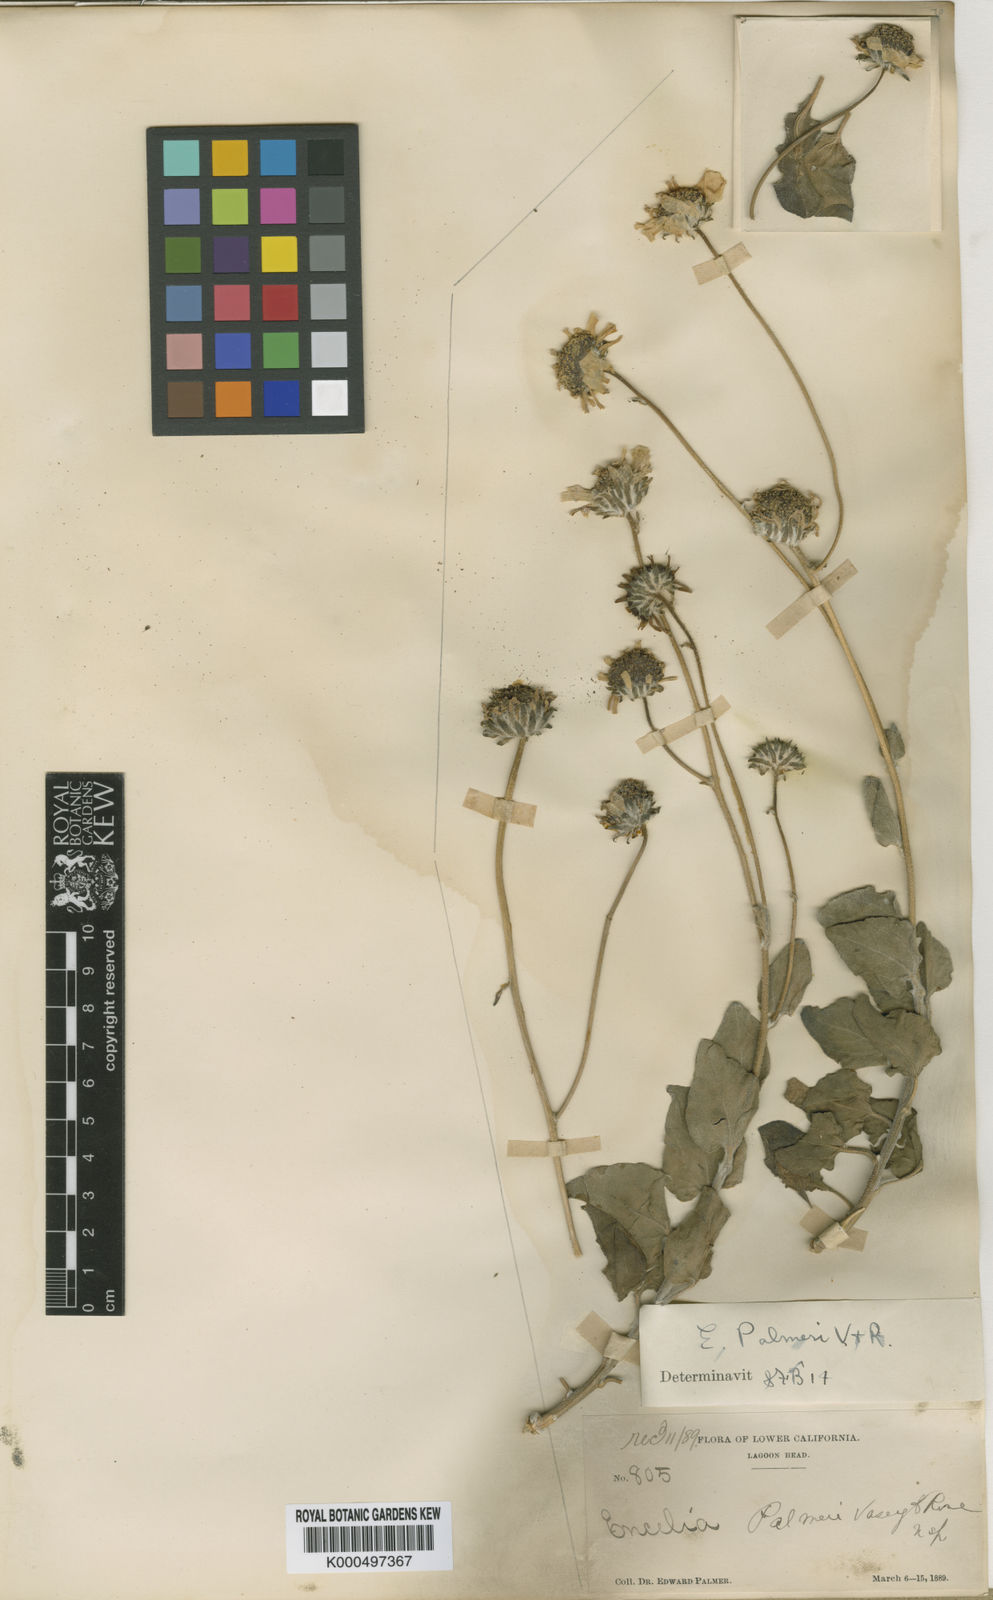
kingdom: Plantae
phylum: Tracheophyta
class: Magnoliopsida
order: Asterales
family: Asteraceae
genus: Encelia
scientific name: Encelia palmeri
